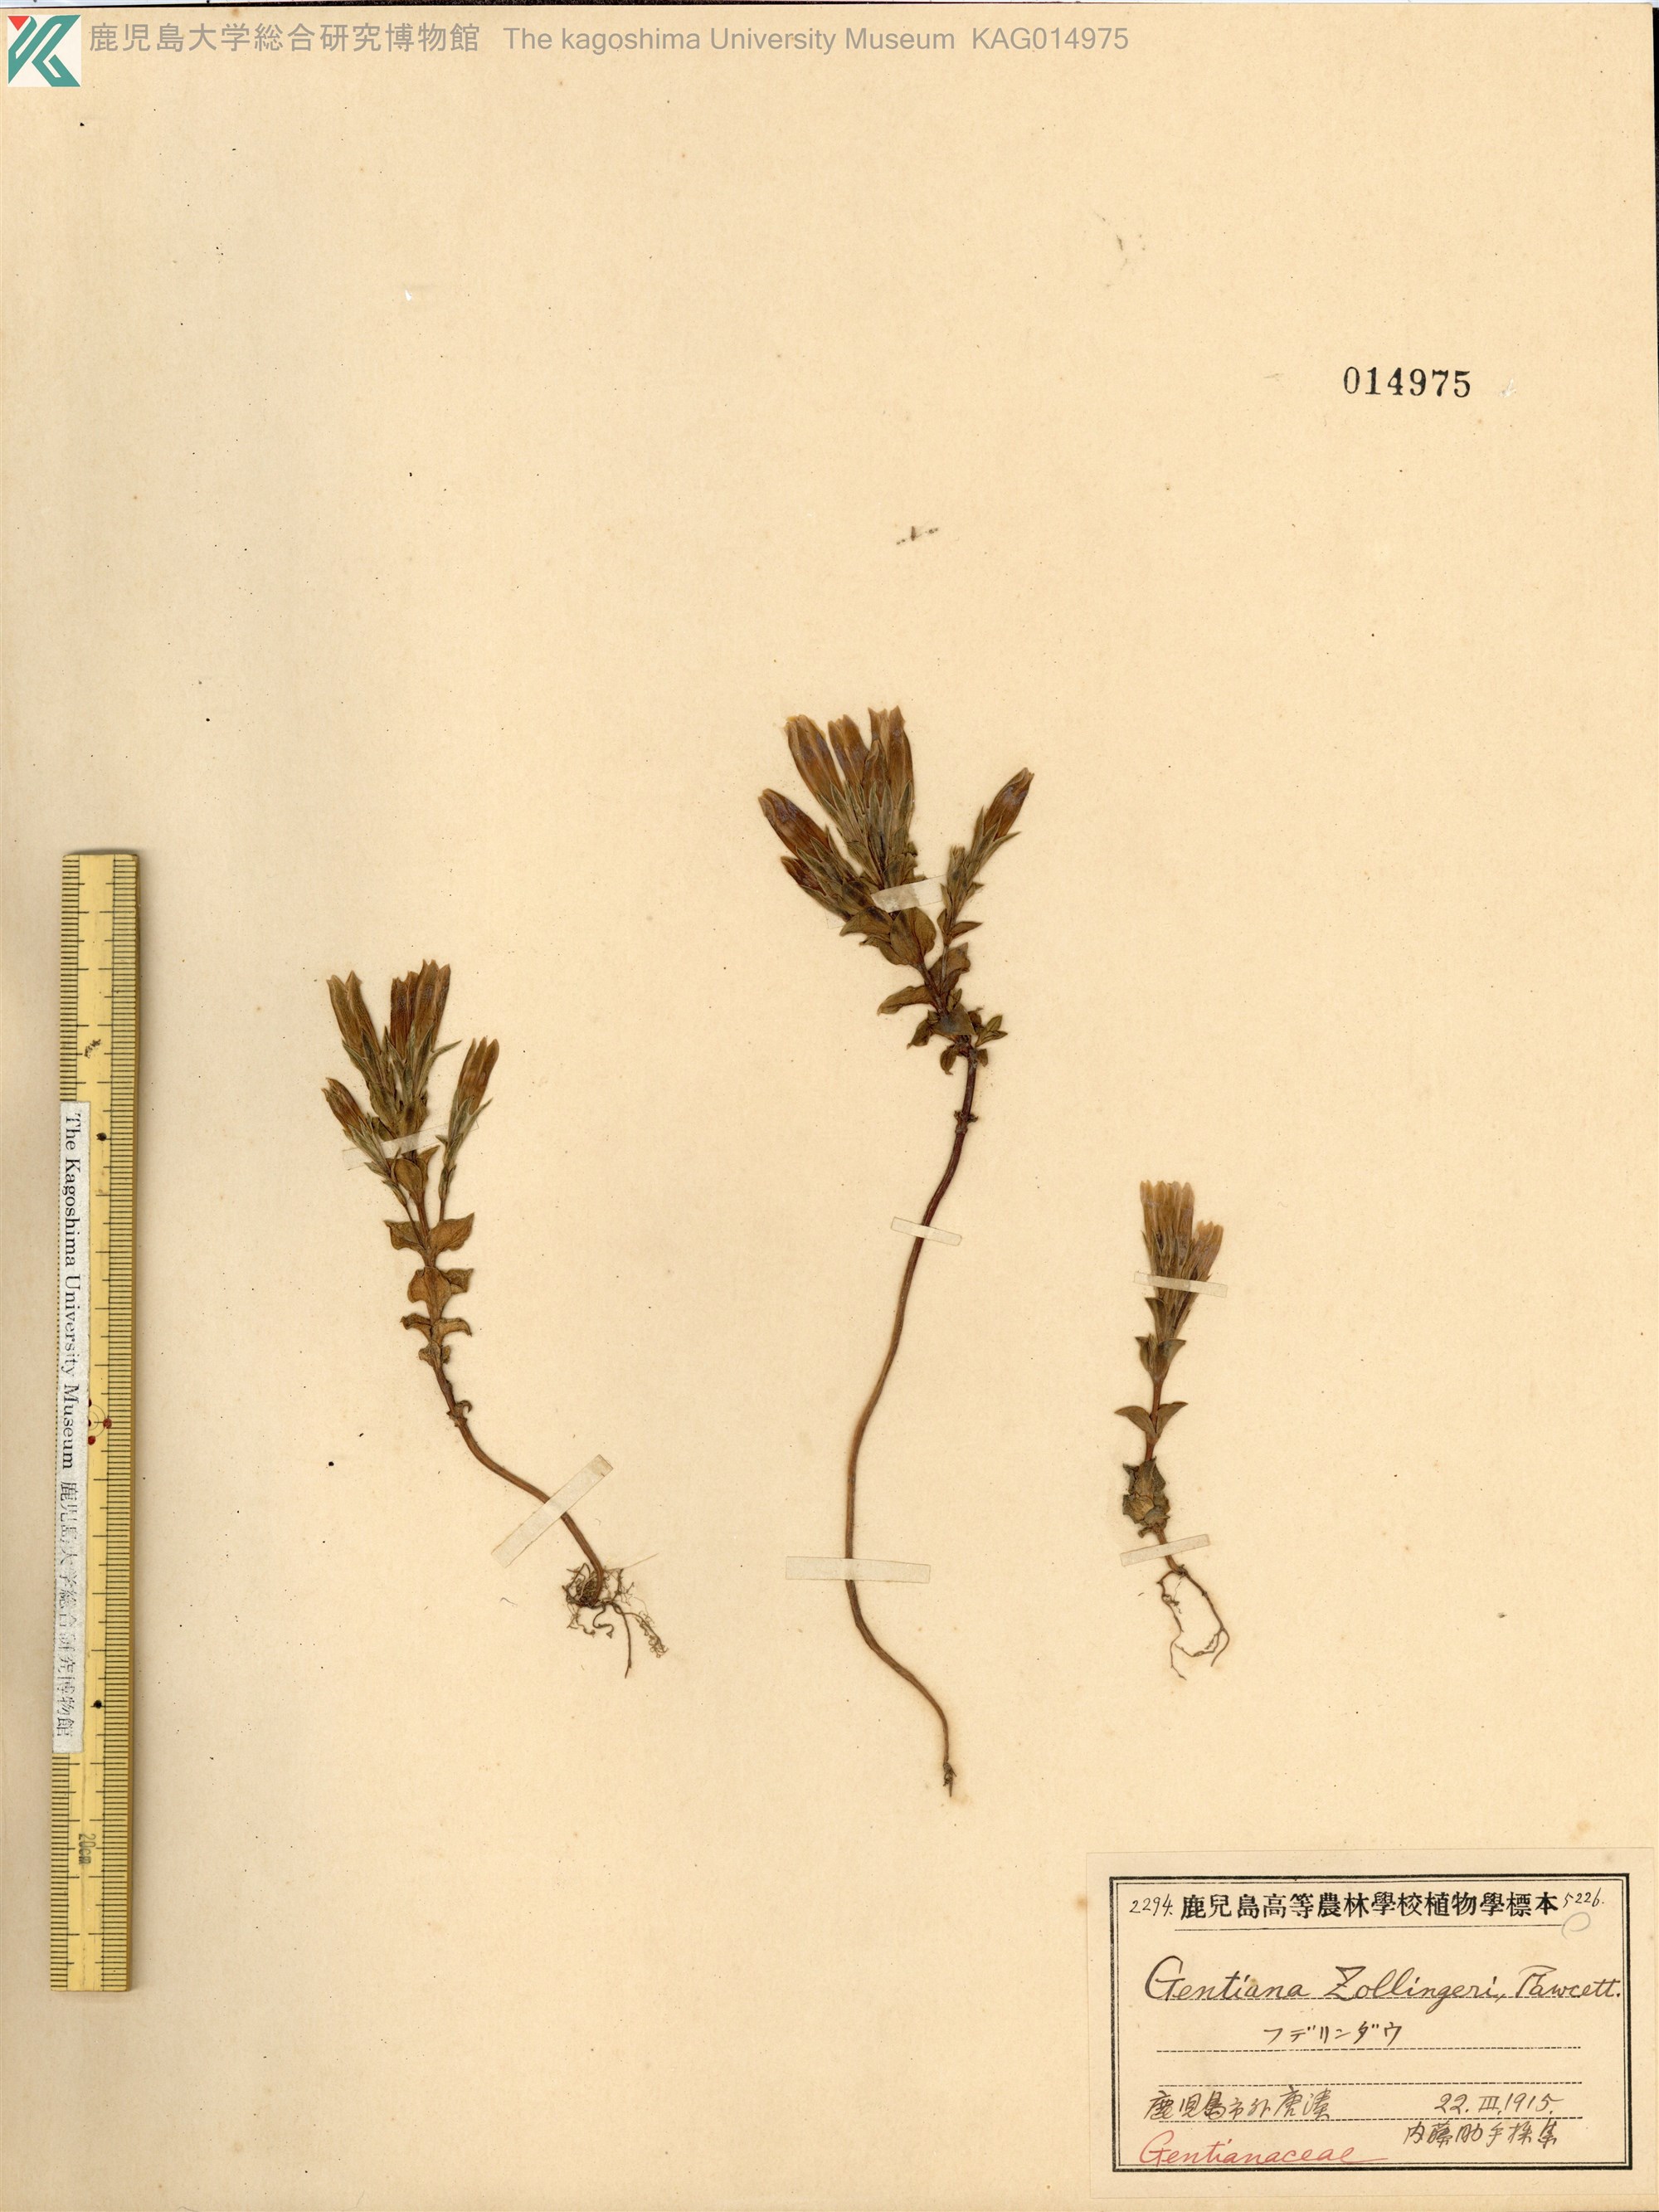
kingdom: Plantae
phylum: Tracheophyta
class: Magnoliopsida
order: Gentianales
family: Gentianaceae
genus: Gentiana
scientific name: Gentiana zollingeri
